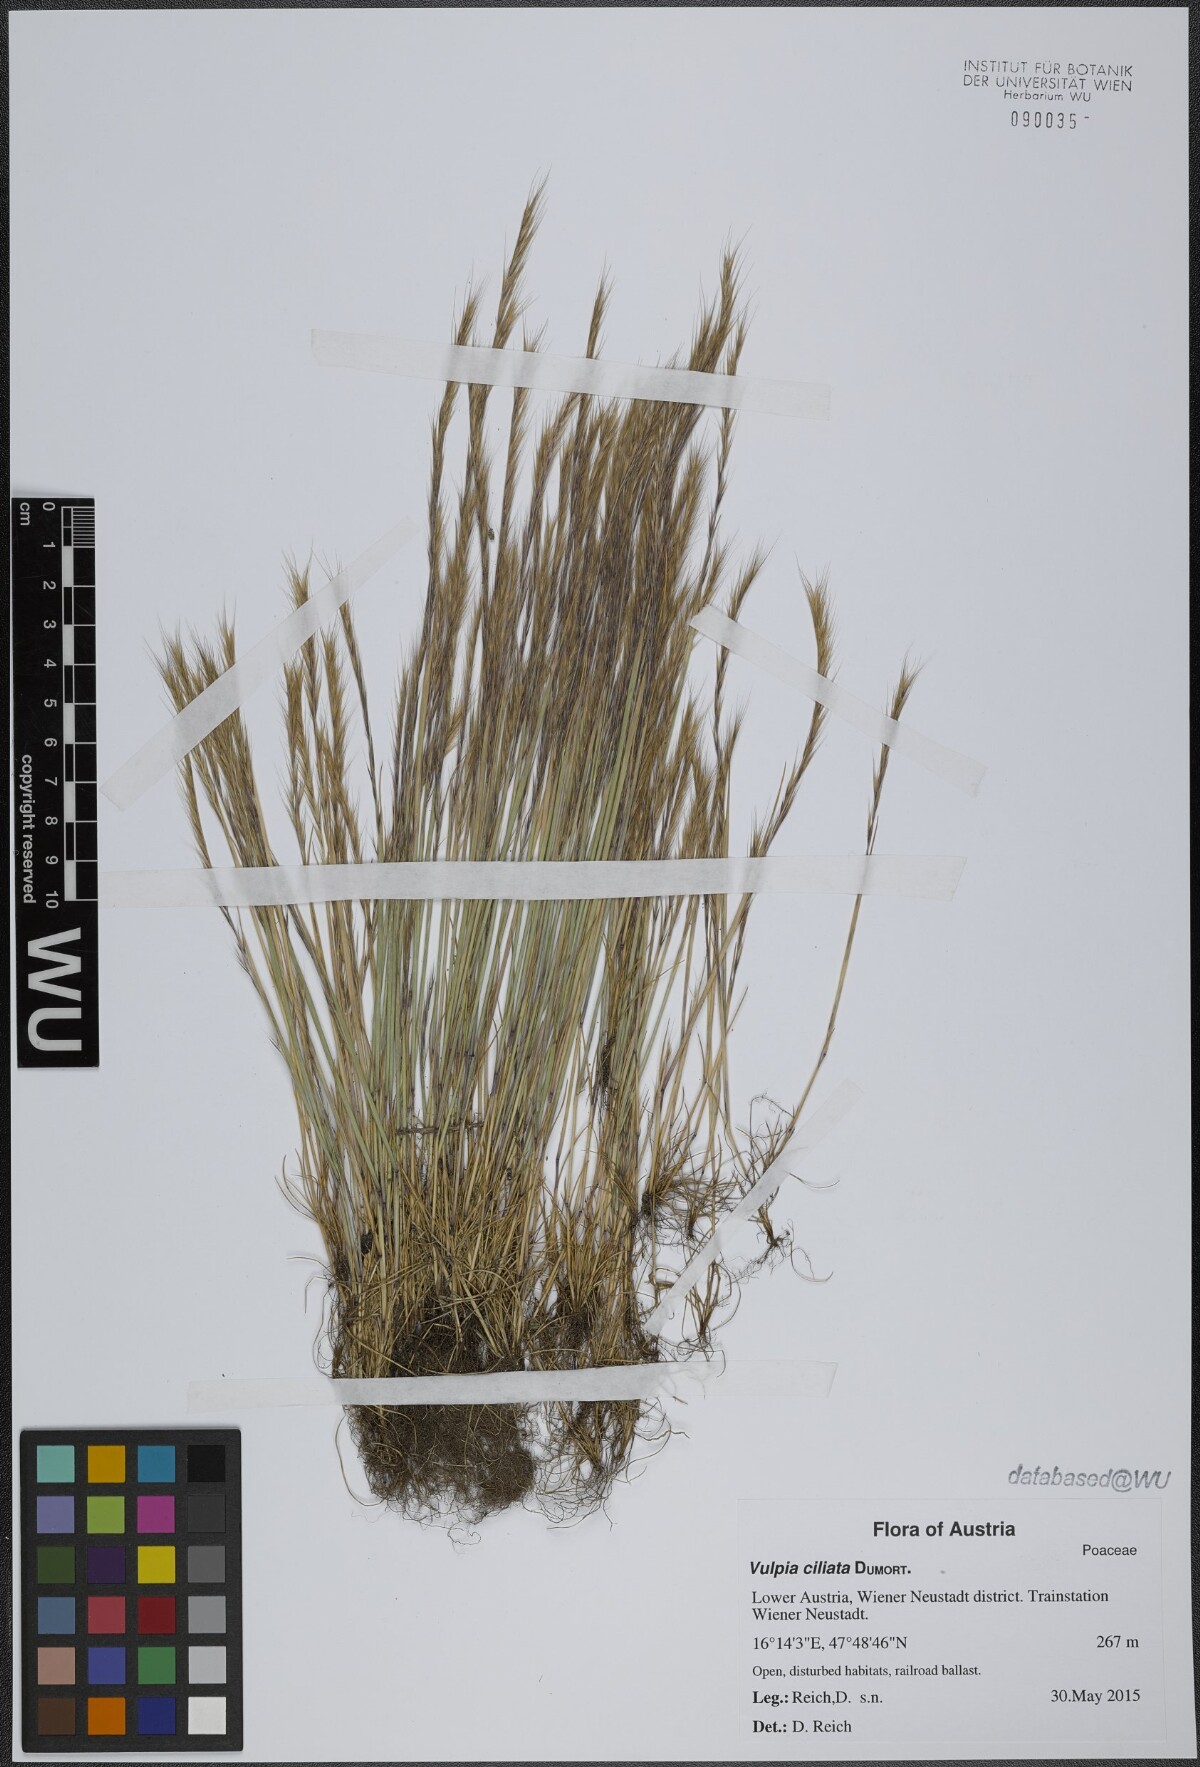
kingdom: Plantae
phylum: Tracheophyta
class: Liliopsida
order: Poales
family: Poaceae
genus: Festuca
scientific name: Festuca ambigua
